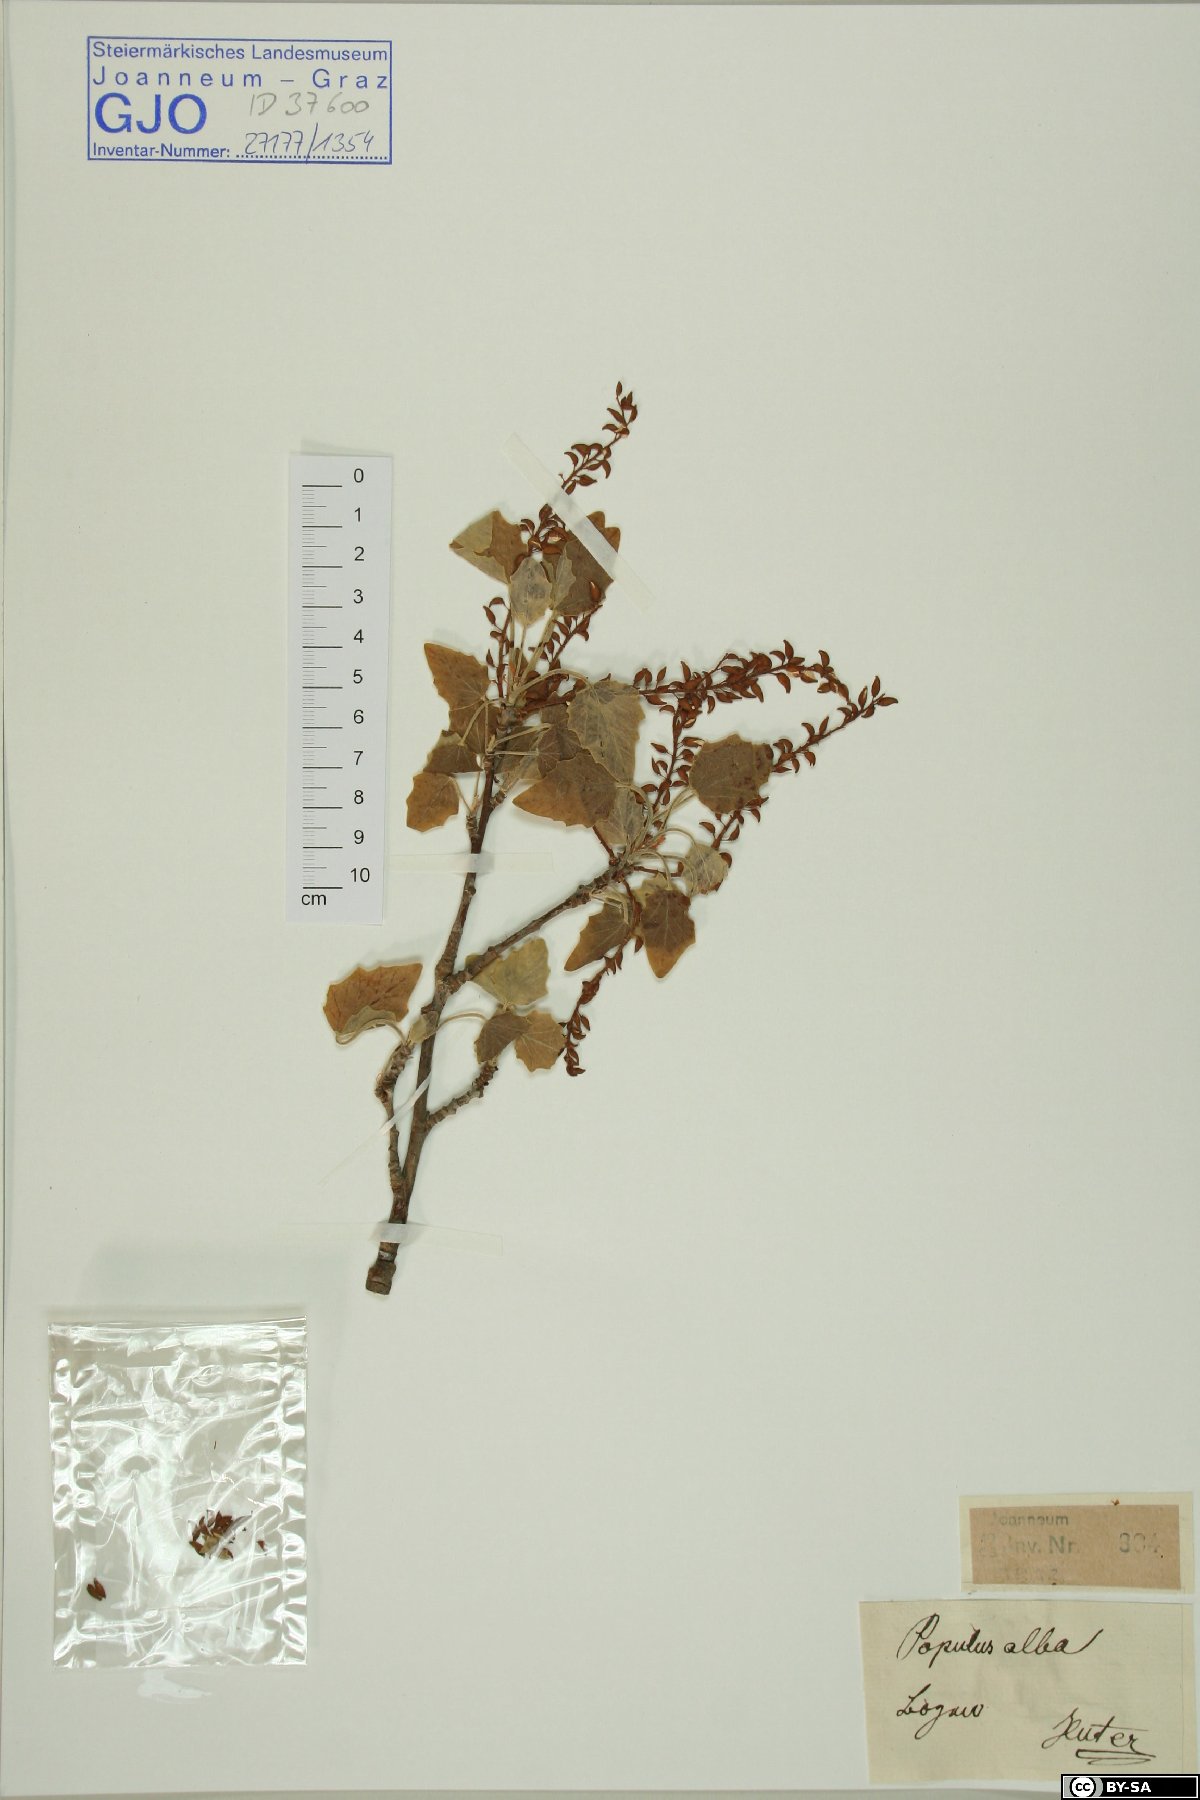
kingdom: Plantae
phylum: Tracheophyta
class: Magnoliopsida
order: Malpighiales
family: Salicaceae
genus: Populus
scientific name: Populus alba
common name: White poplar
